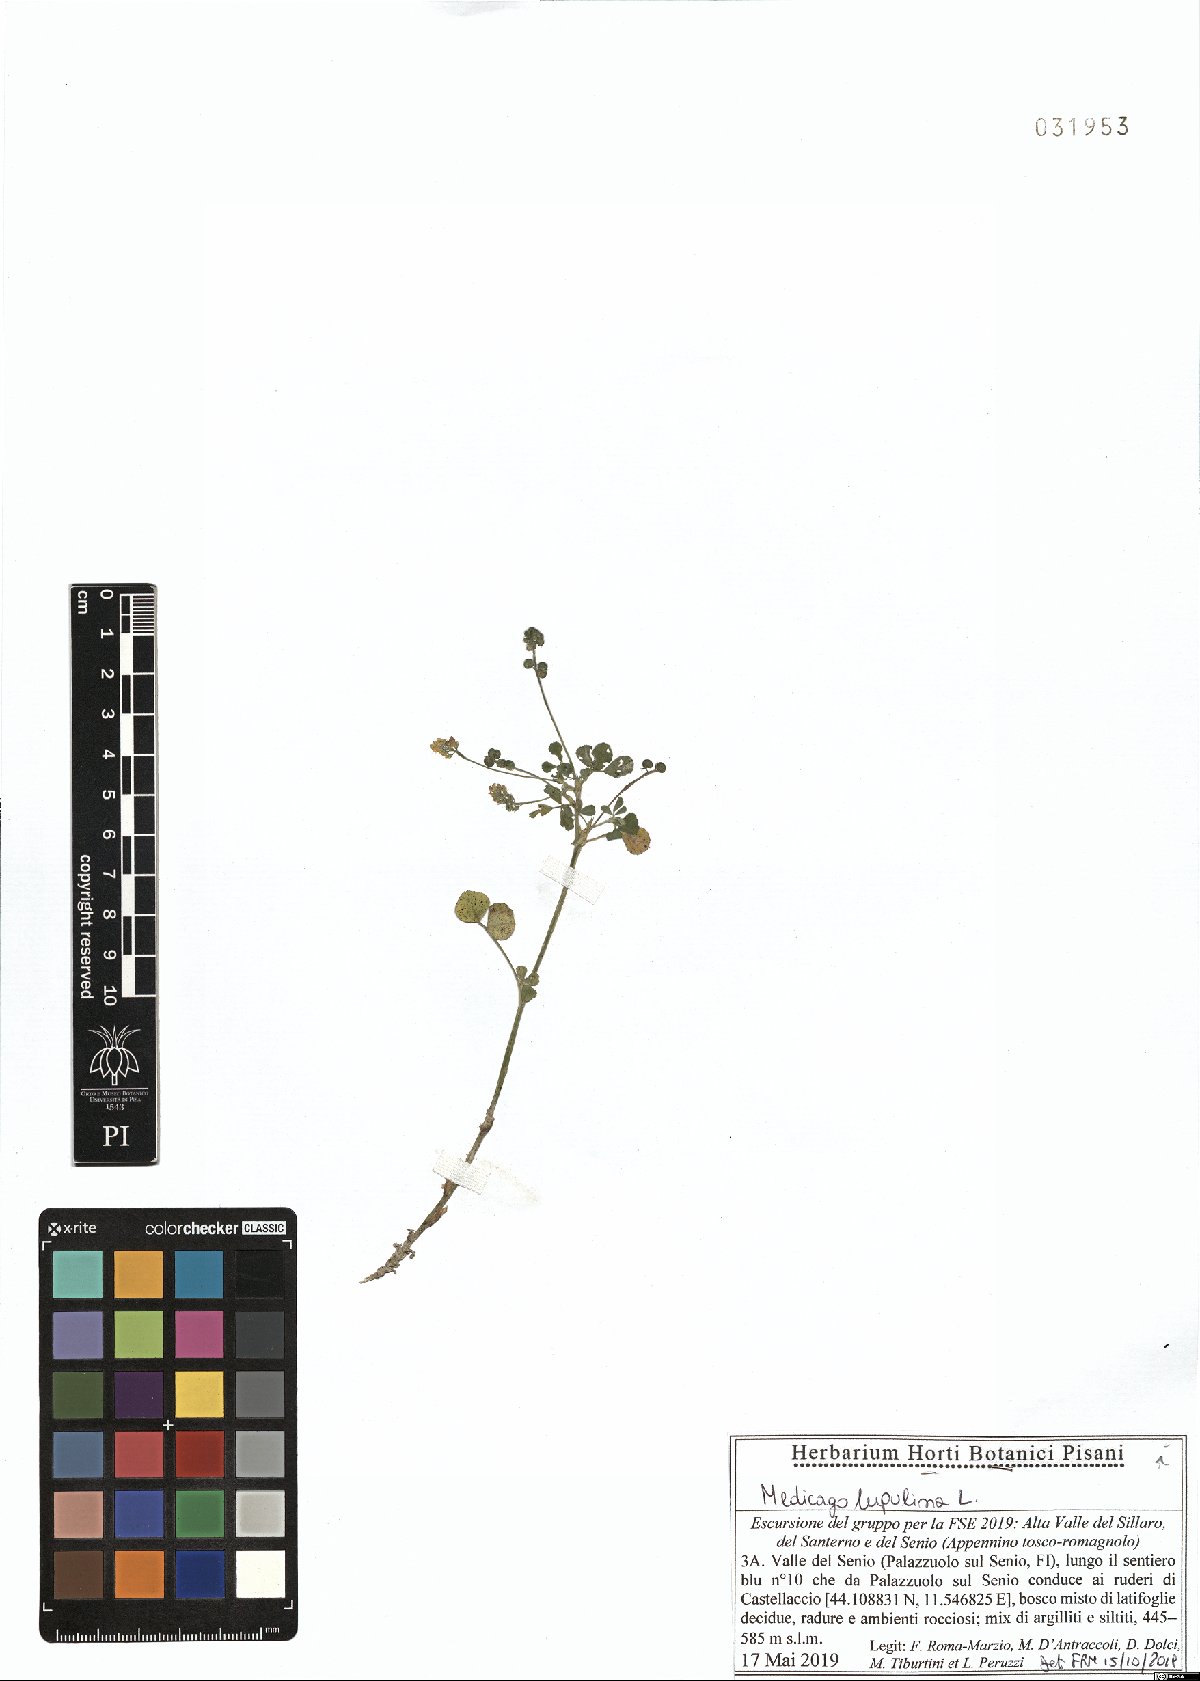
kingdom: Plantae
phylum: Tracheophyta
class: Magnoliopsida
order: Fabales
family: Fabaceae
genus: Medicago
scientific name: Medicago lupulina
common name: Black medick
